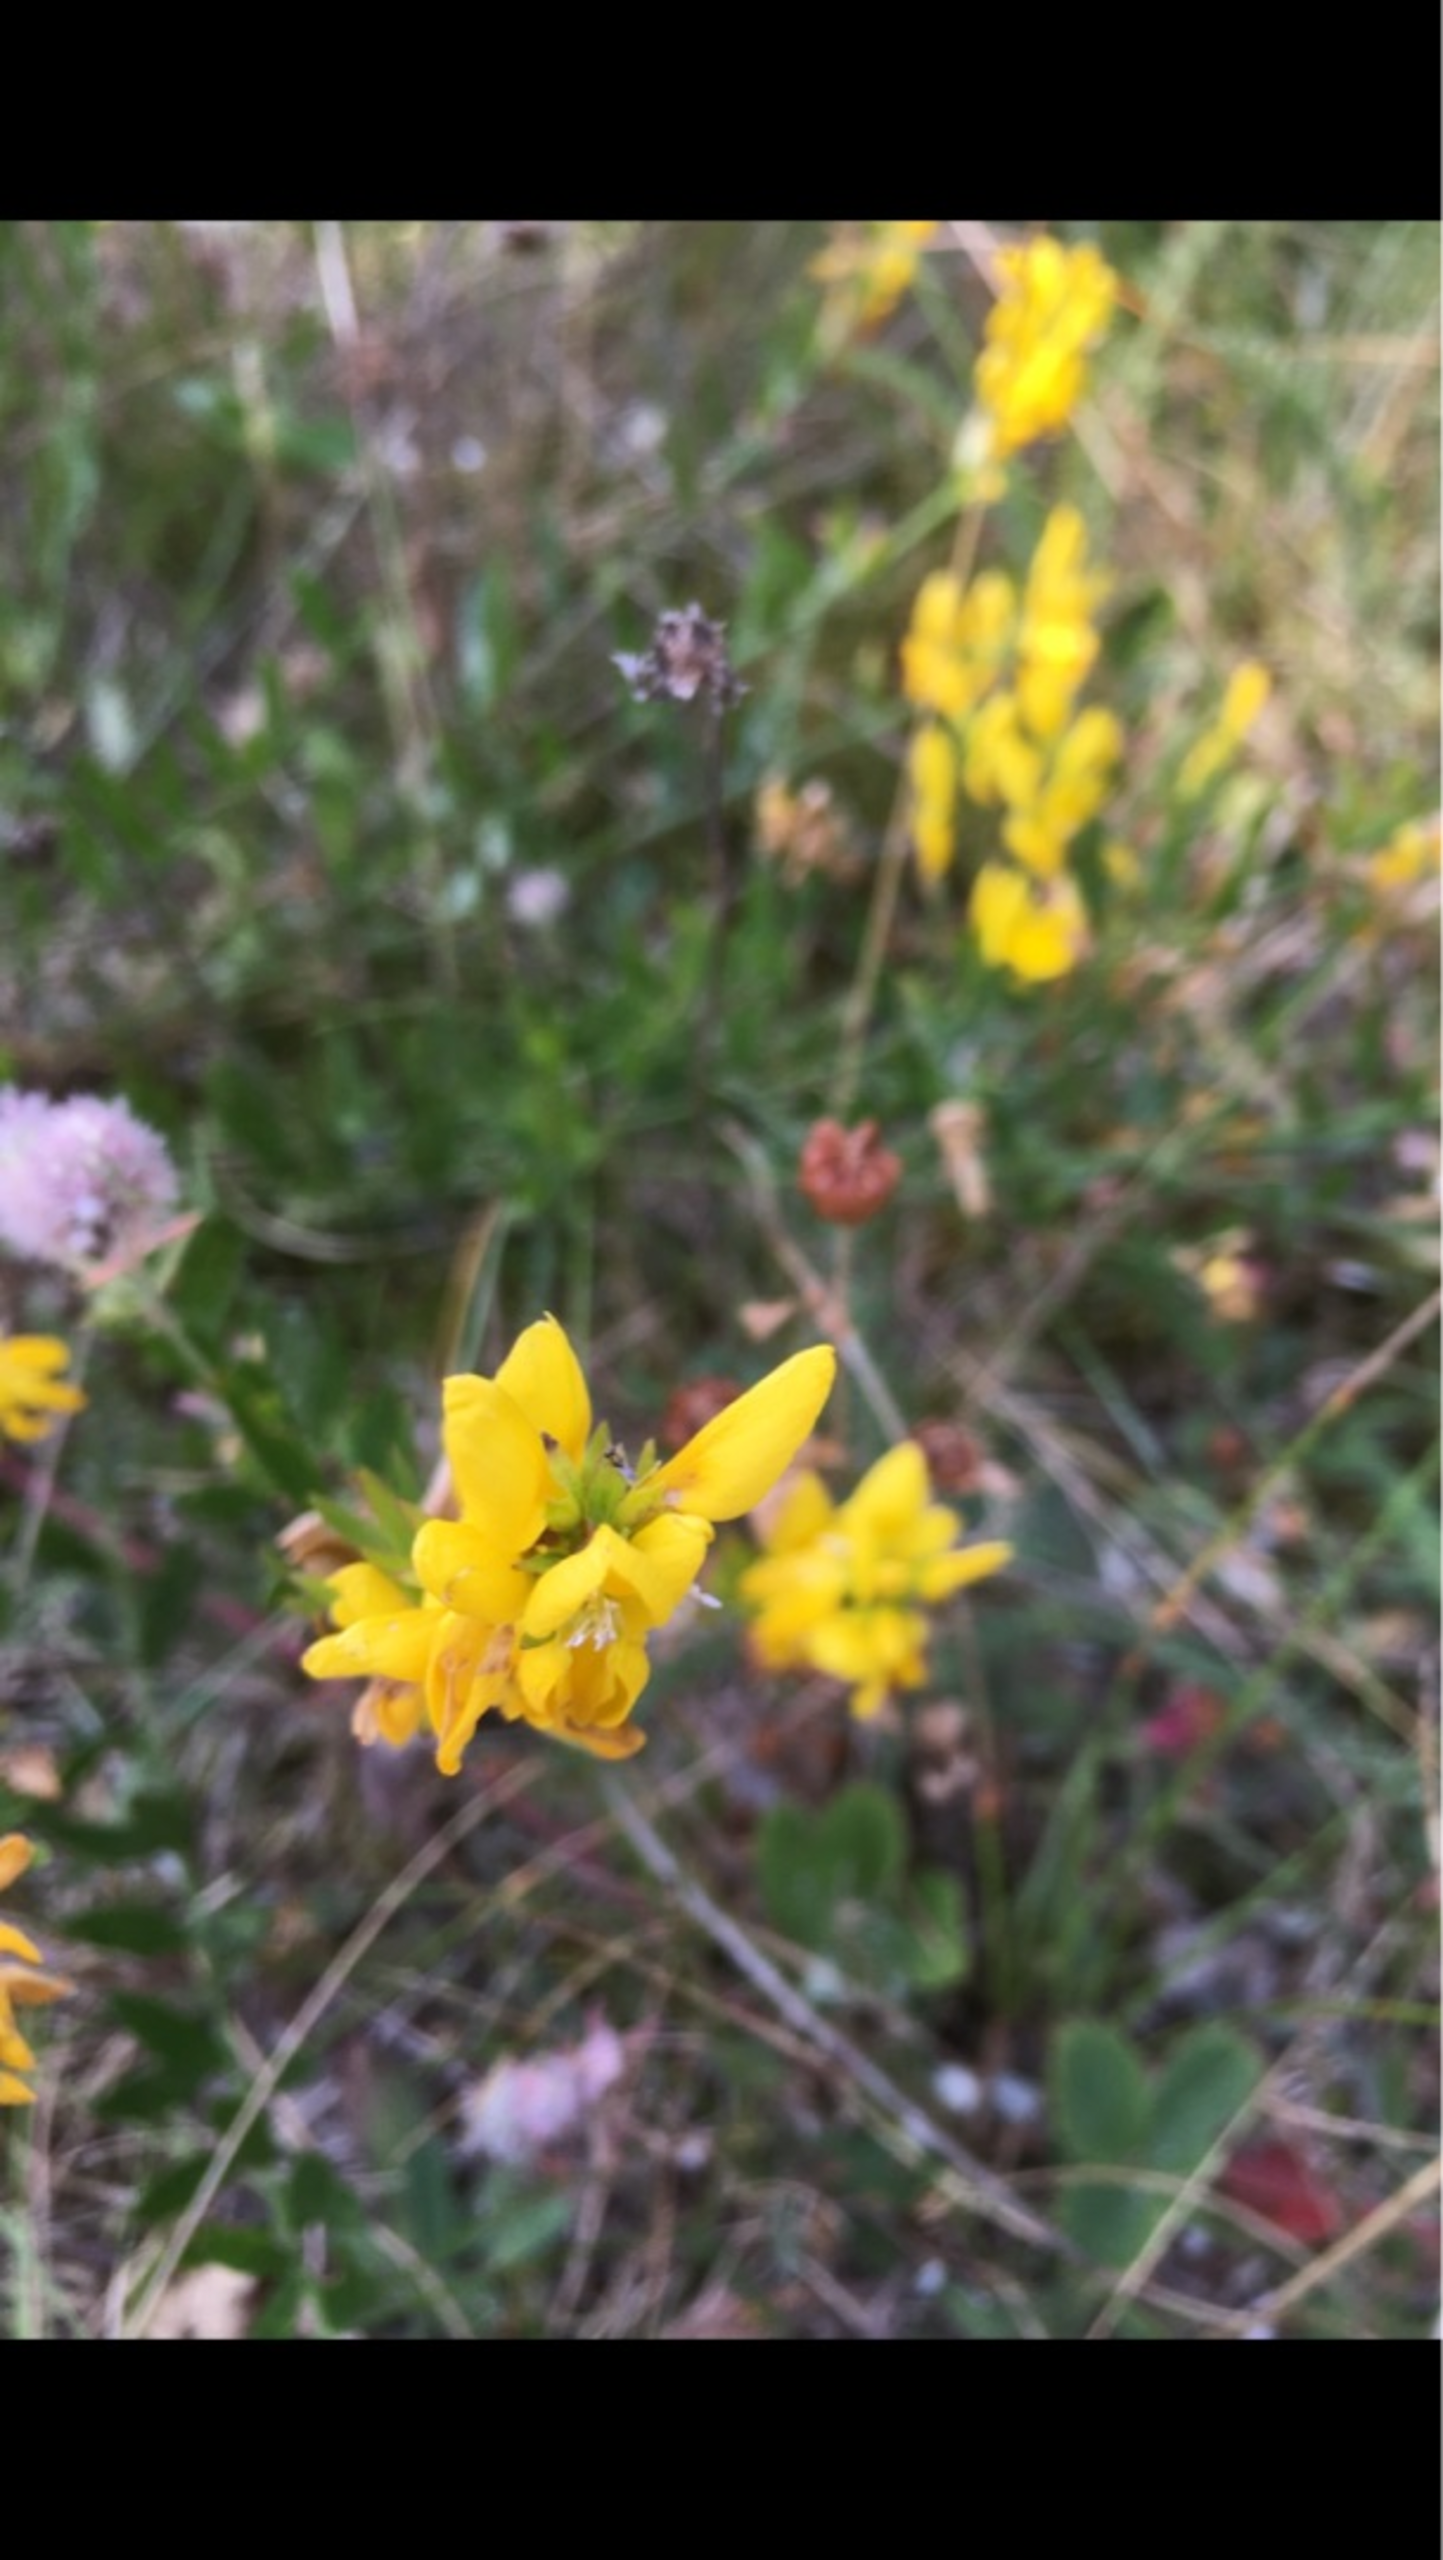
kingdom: Plantae
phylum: Tracheophyta
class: Magnoliopsida
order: Fabales
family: Fabaceae
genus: Genista
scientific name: Genista tinctoria
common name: Farve-visse
